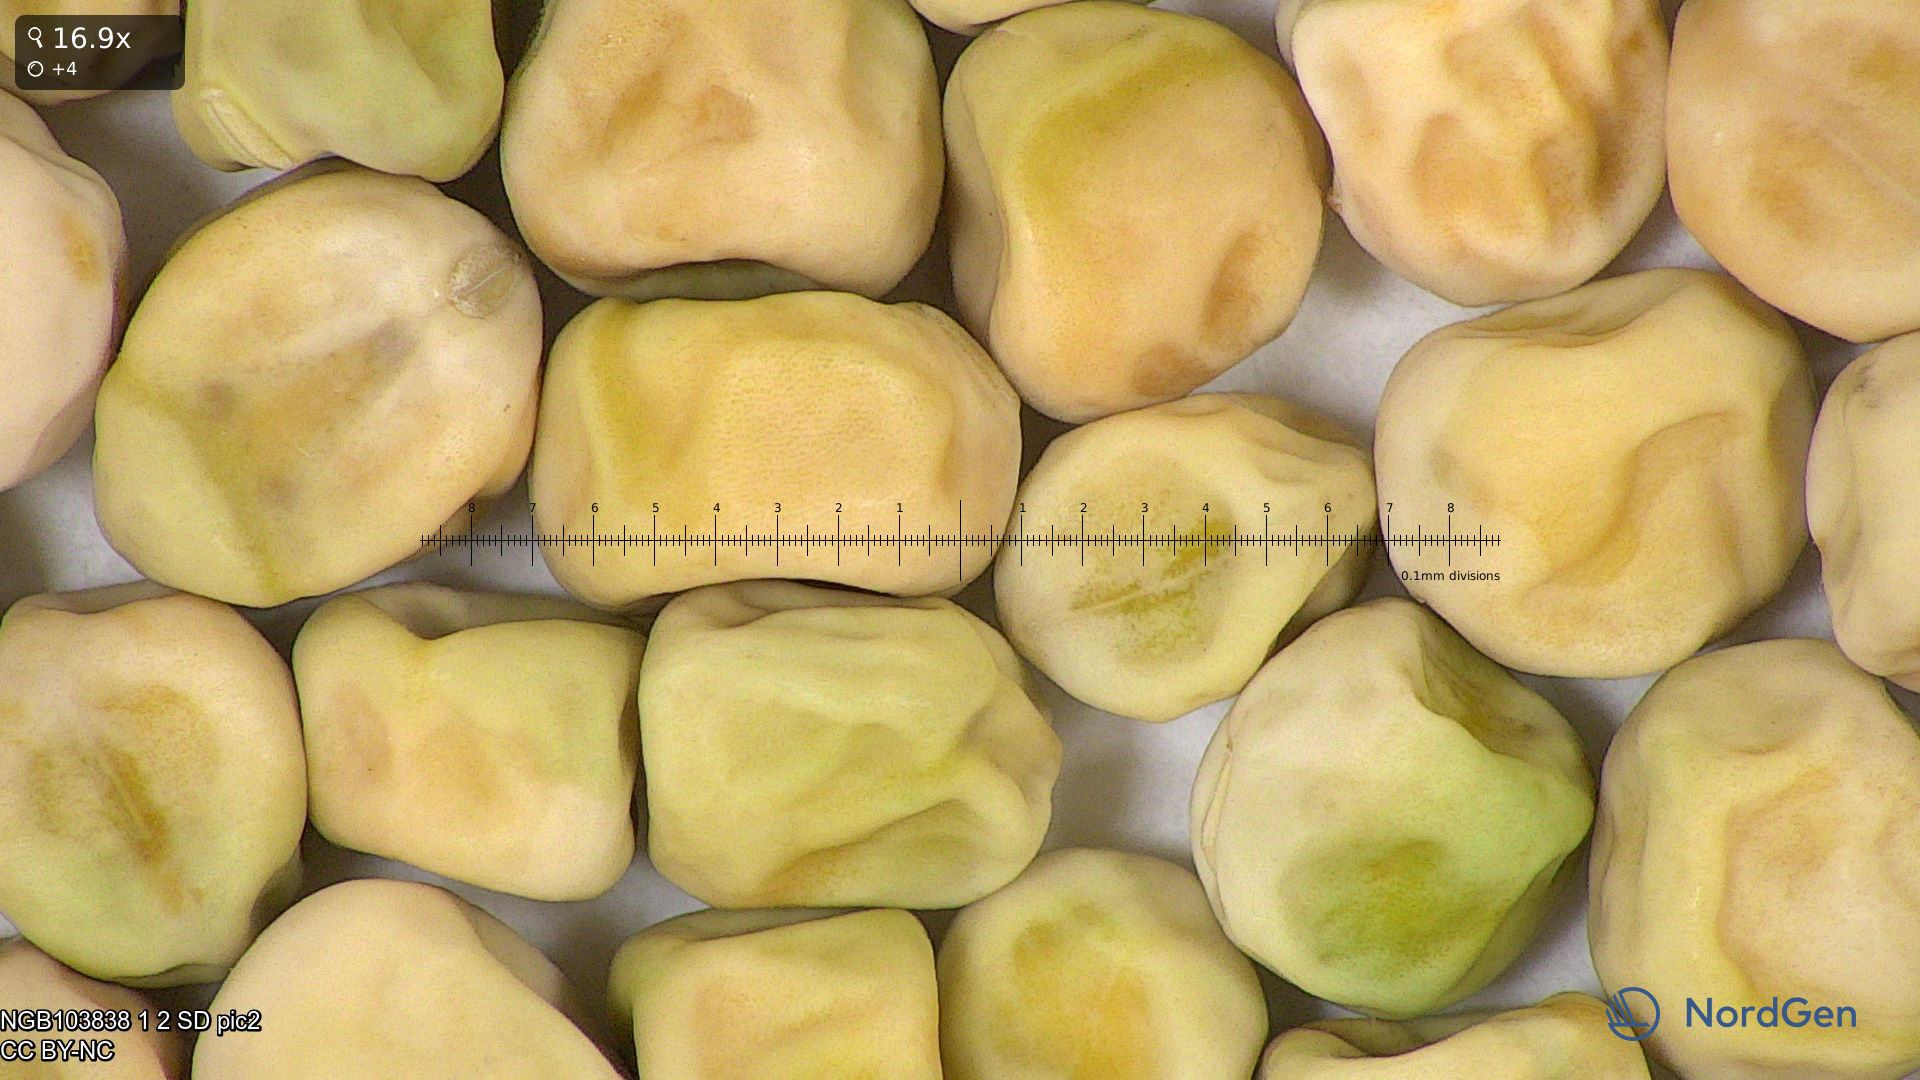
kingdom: Plantae
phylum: Tracheophyta
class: Magnoliopsida
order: Fabales
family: Fabaceae
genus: Lathyrus
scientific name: Lathyrus oleraceus
